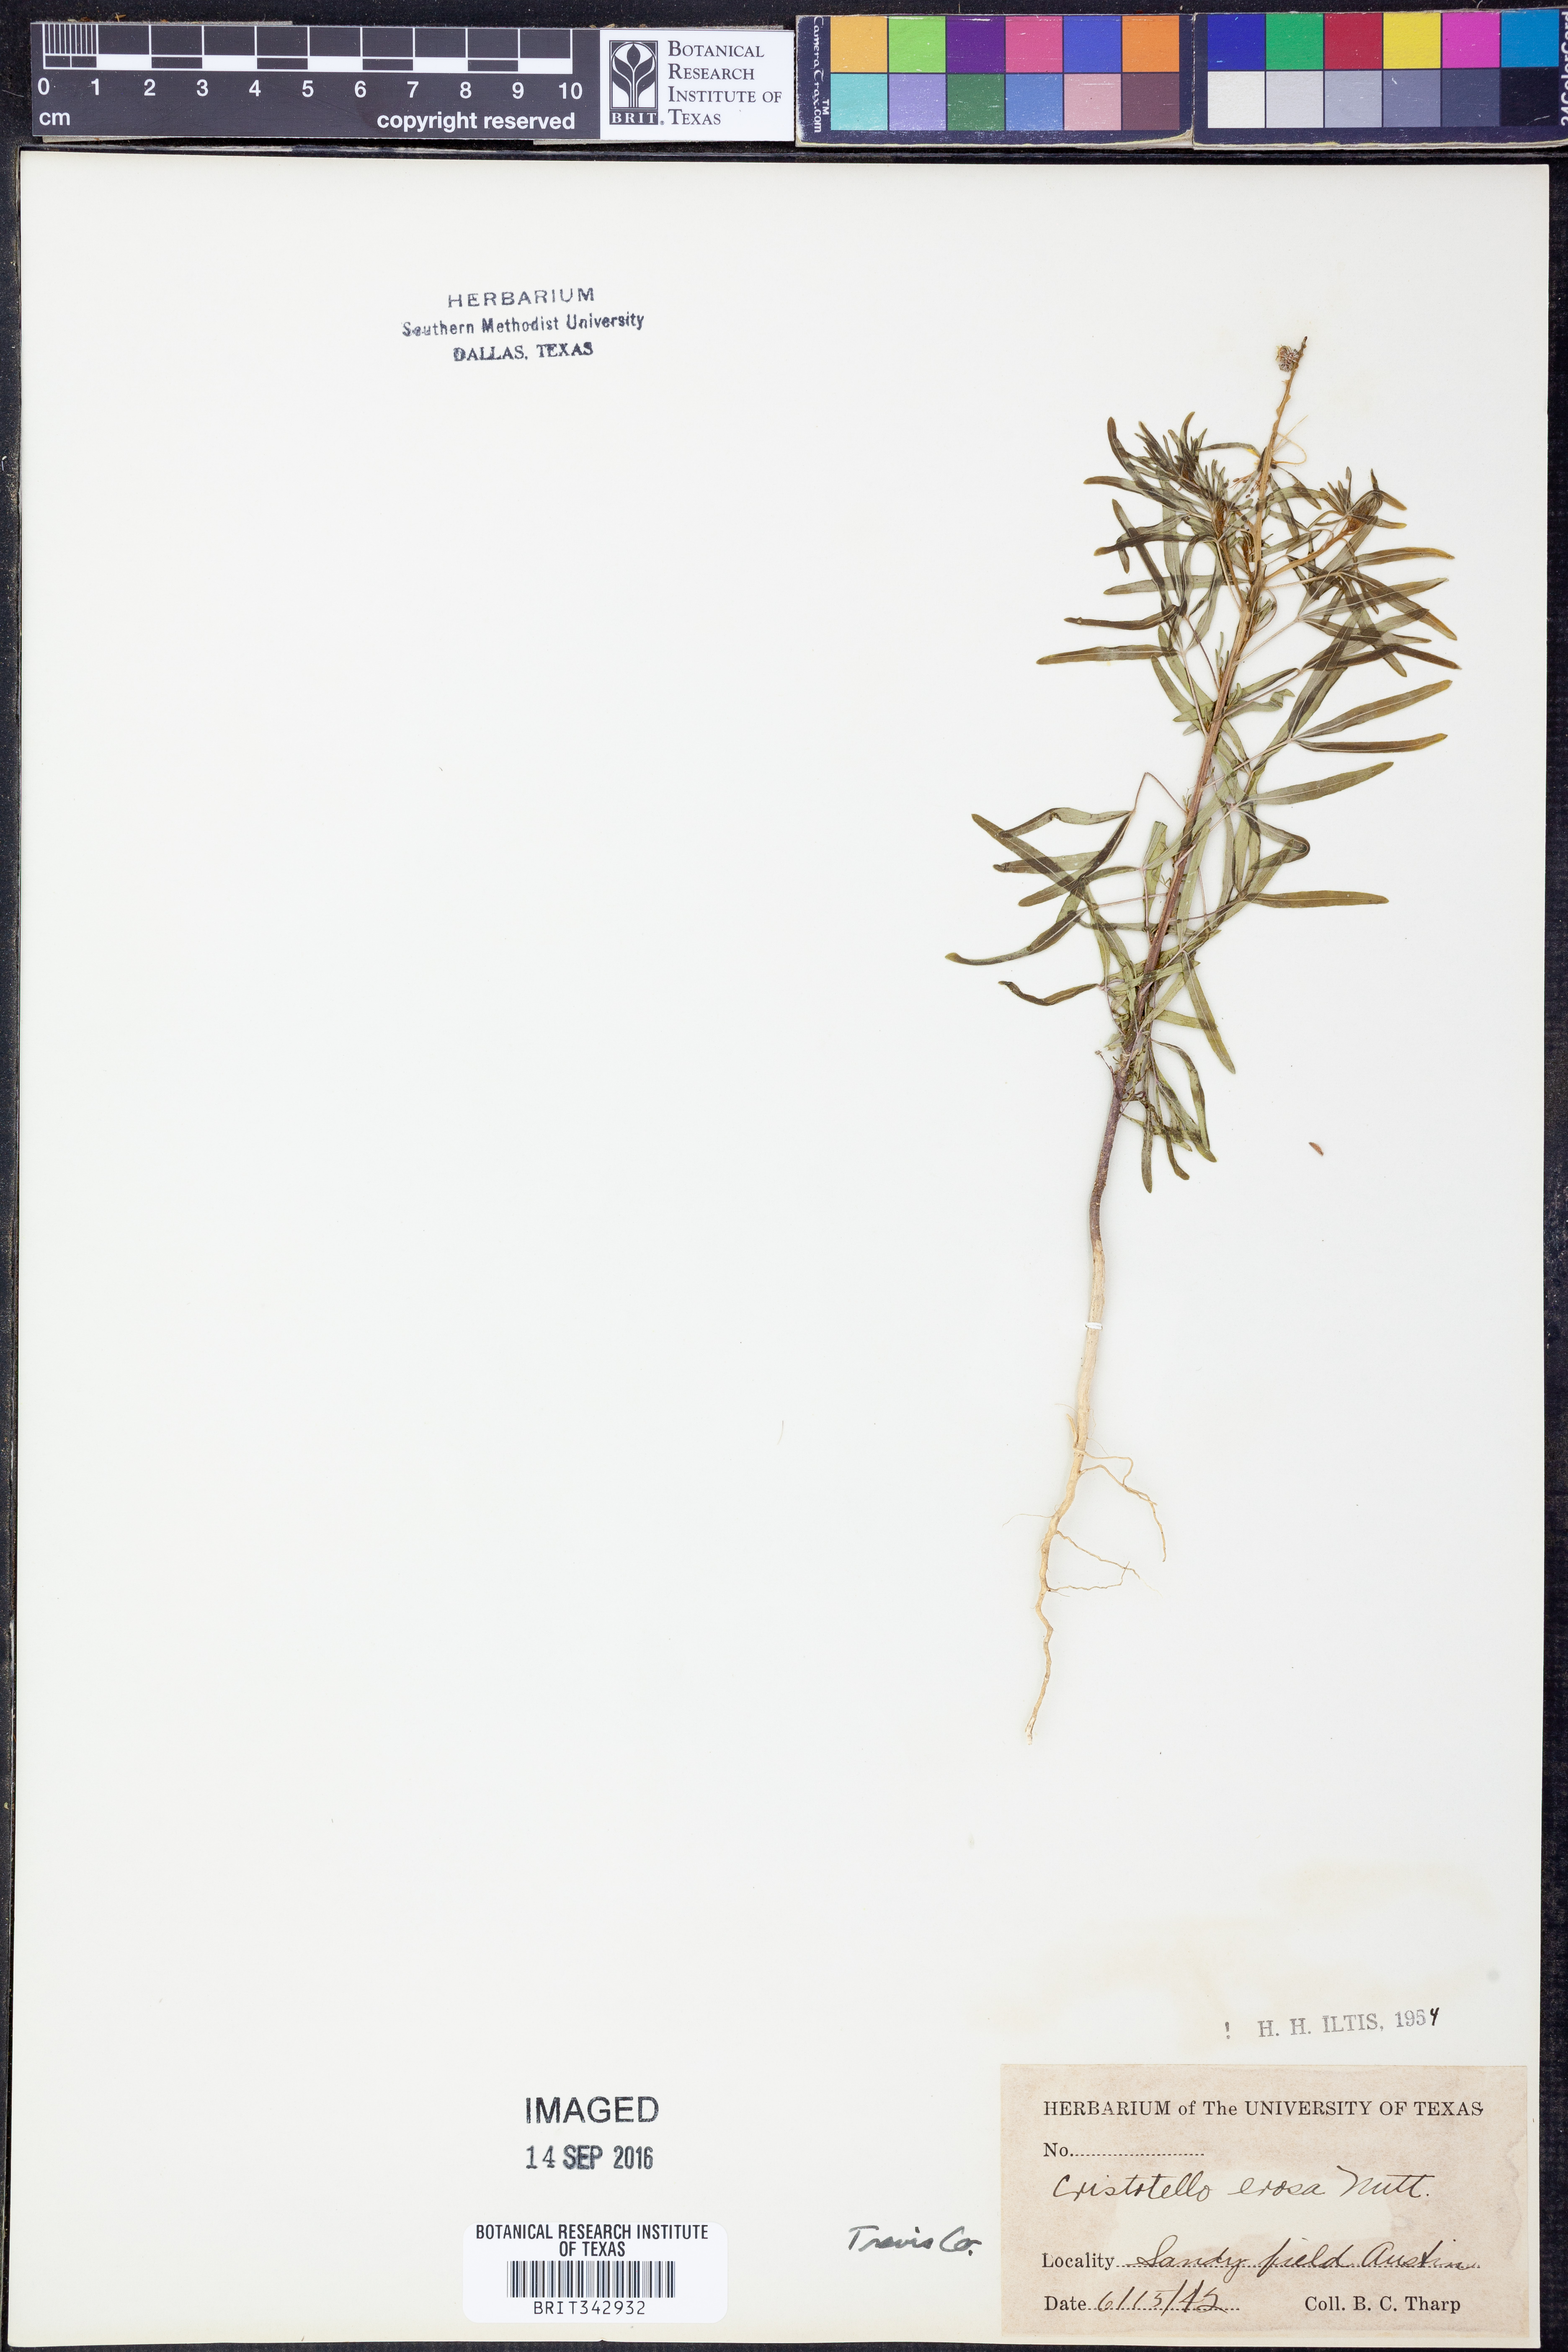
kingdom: Plantae
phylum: Tracheophyta
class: Magnoliopsida
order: Brassicales
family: Cleomaceae
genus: Polanisia
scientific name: Polanisia erosa
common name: Large clammyweed
